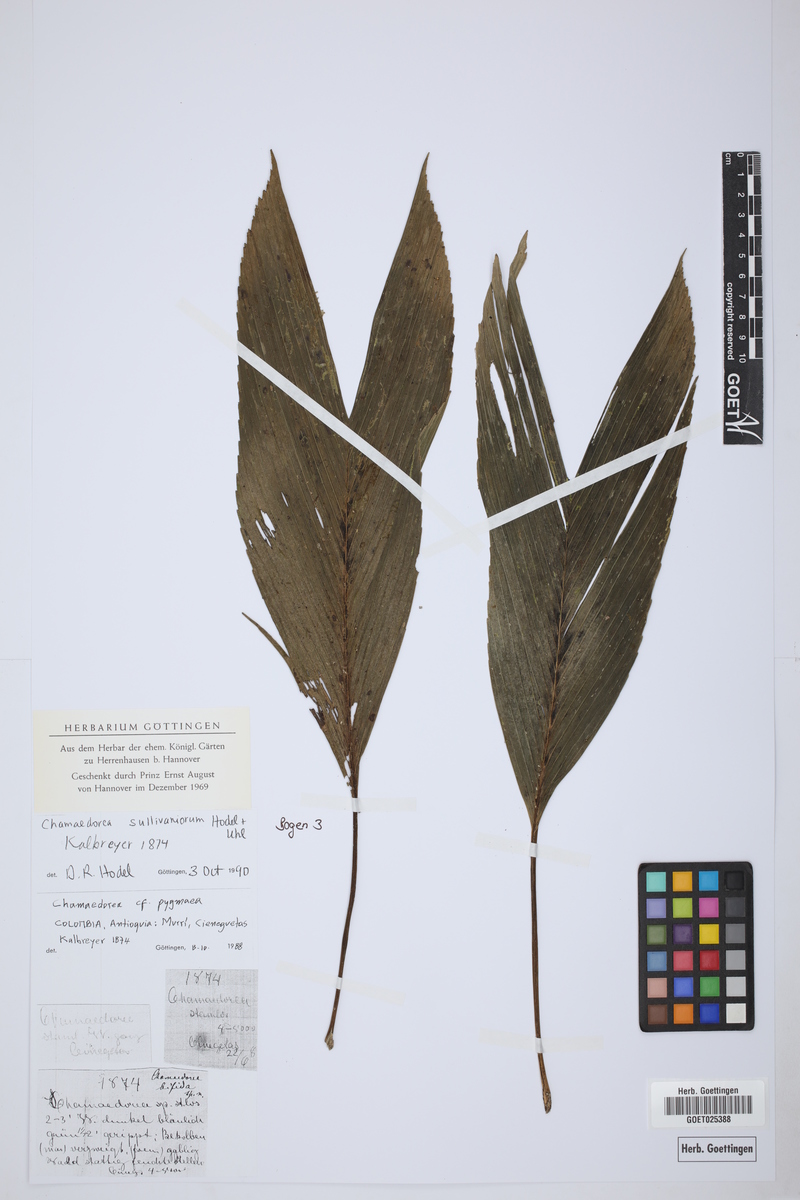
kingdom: Plantae
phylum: Tracheophyta
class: Liliopsida
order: Arecales
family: Arecaceae
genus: Chamaedorea
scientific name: Chamaedorea pumila
